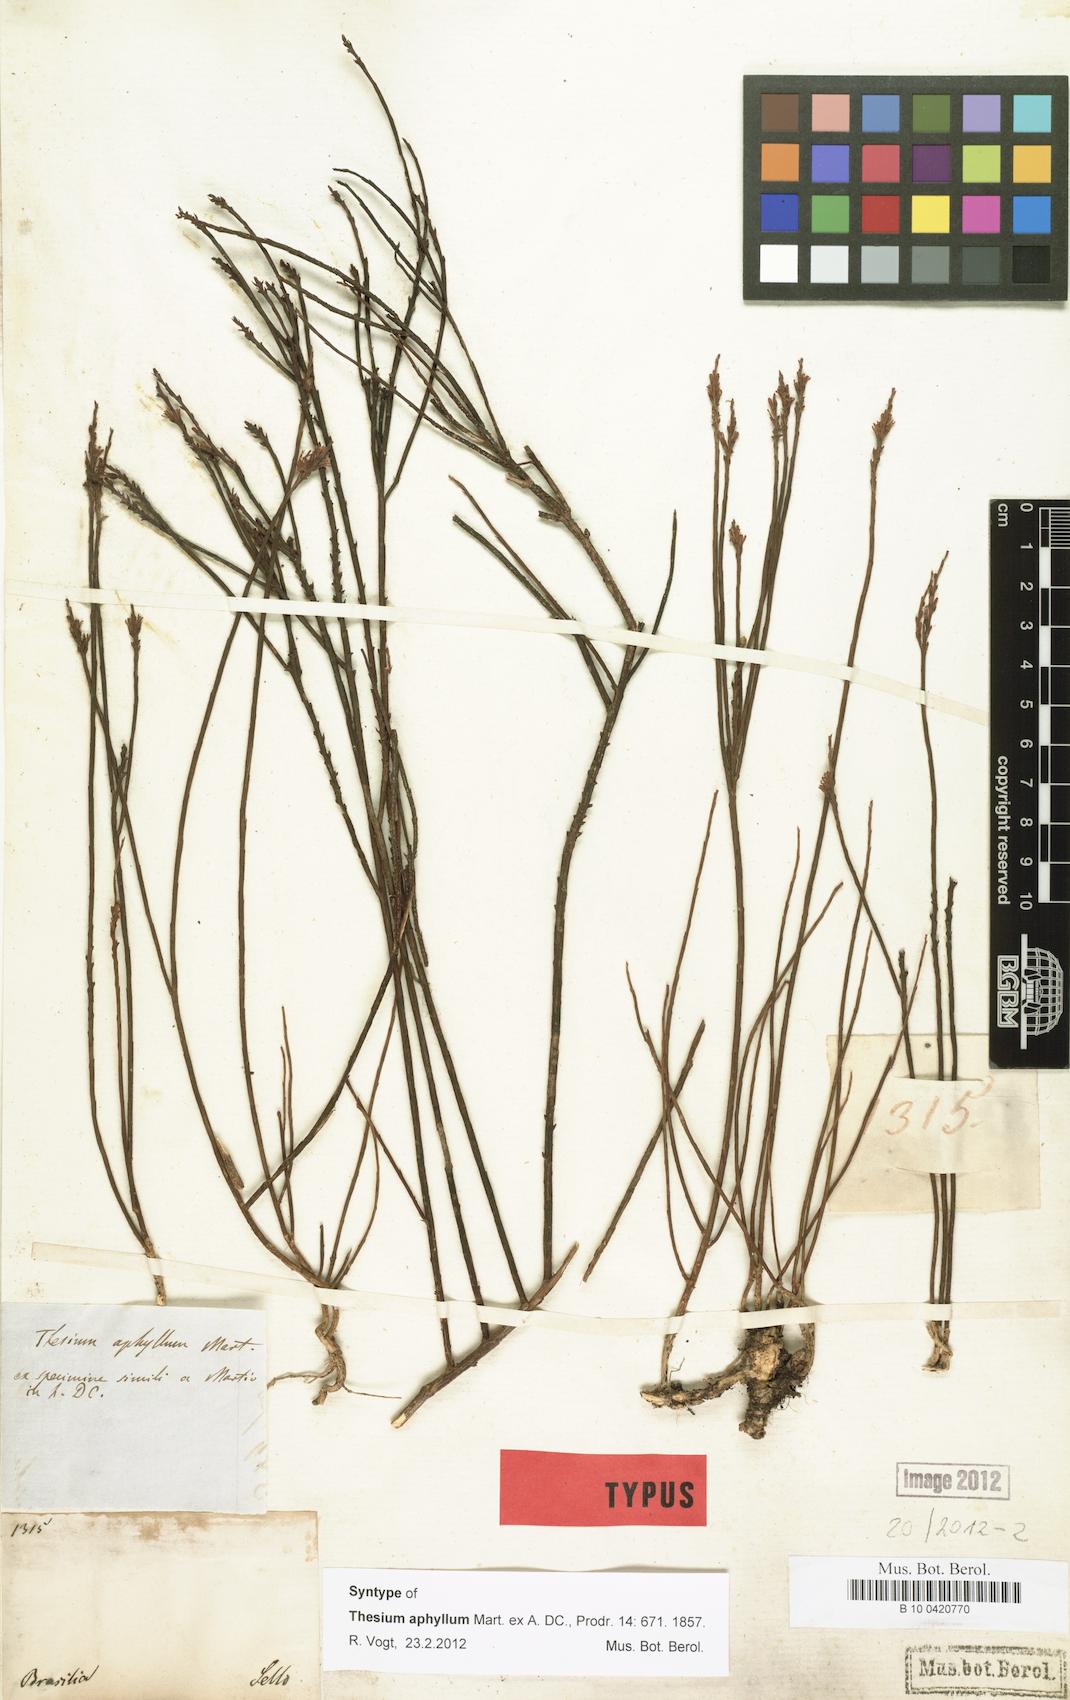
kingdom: Plantae
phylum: Tracheophyta
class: Magnoliopsida
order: Santalales
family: Thesiaceae
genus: Austroamericium
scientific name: Austroamericium aphyllum
